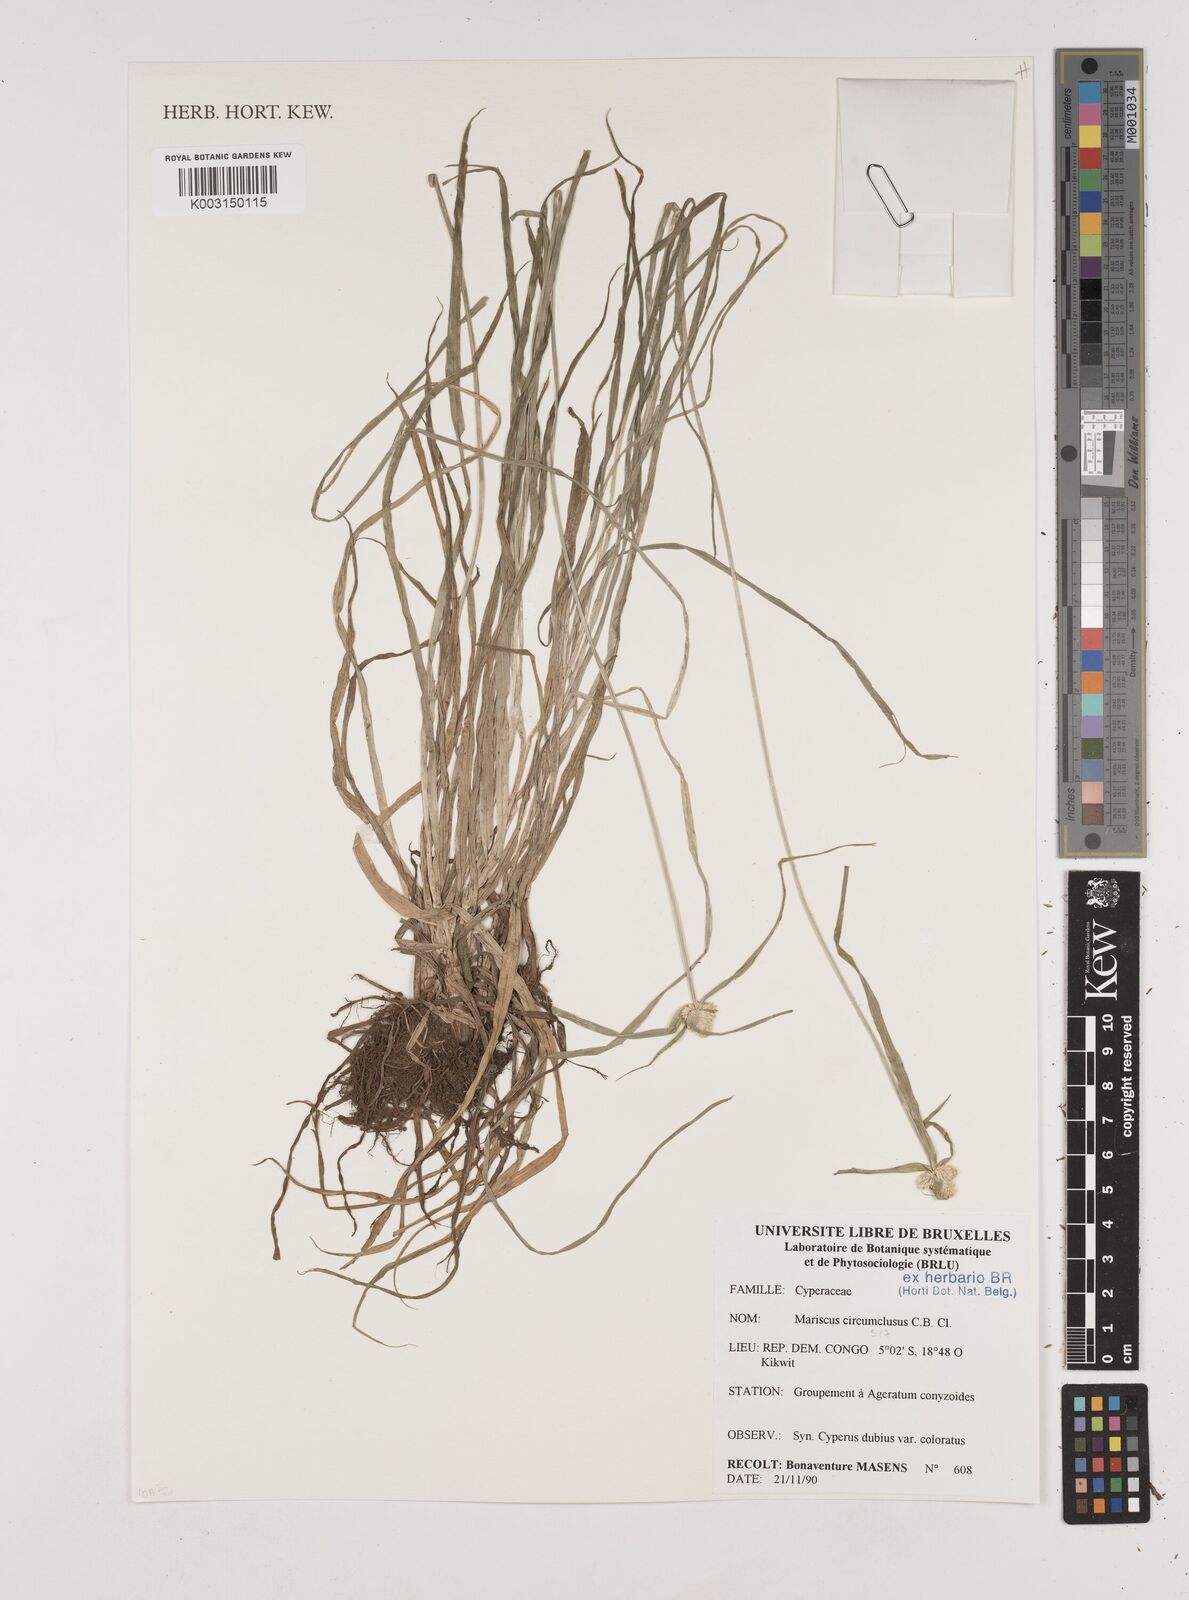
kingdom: Plantae
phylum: Tracheophyta
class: Liliopsida
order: Poales
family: Cyperaceae
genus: Cyperus
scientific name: Cyperus mollipes
